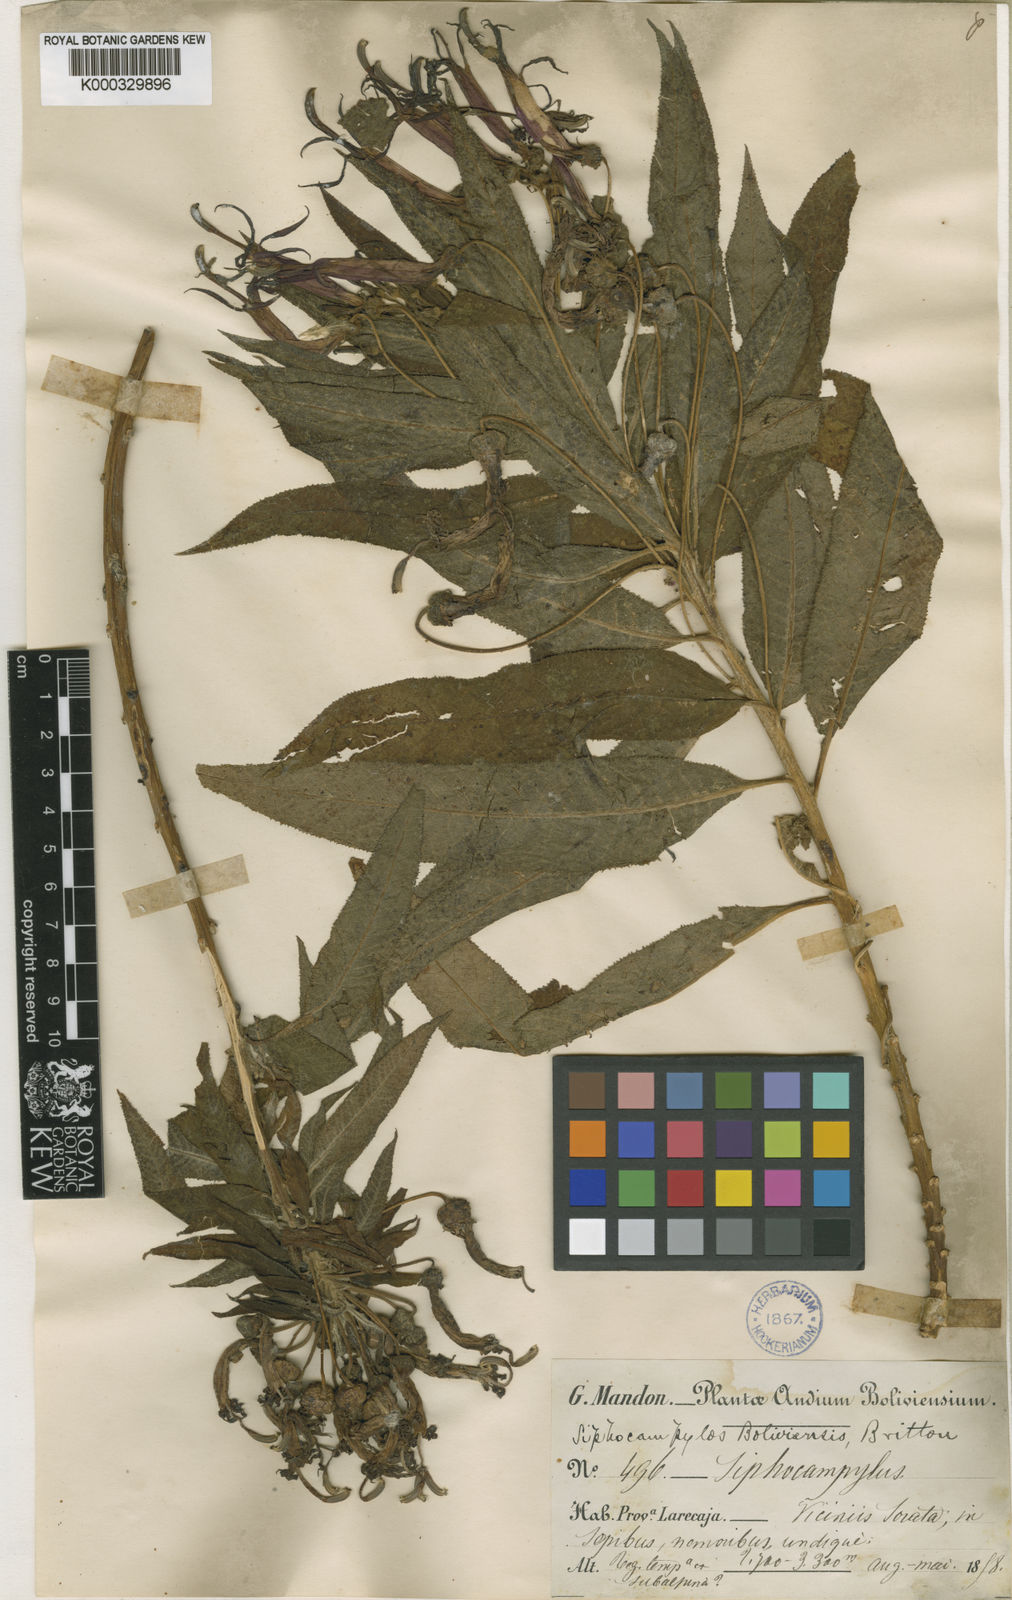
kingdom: Plantae
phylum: Tracheophyta
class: Magnoliopsida
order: Asterales
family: Campanulaceae
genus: Siphocampylus
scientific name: Siphocampylus boliviensis
